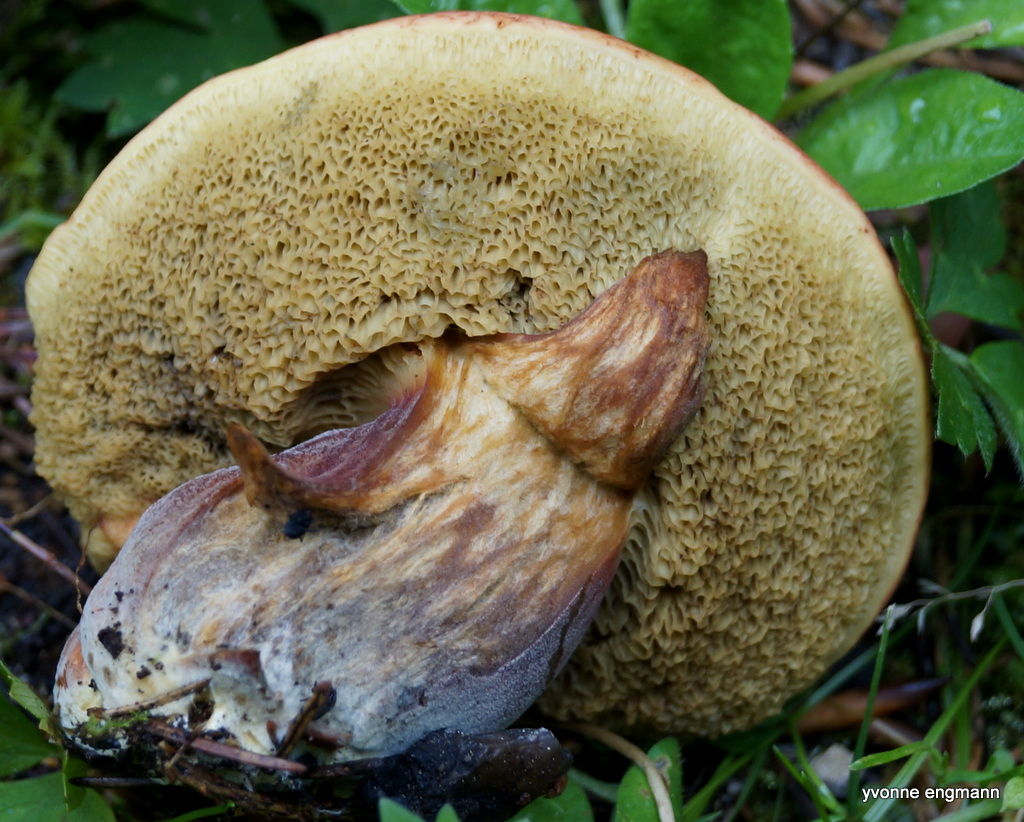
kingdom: Fungi
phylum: Basidiomycota
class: Agaricomycetes
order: Boletales
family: Boletaceae
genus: Hortiboletus
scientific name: Hortiboletus rubellus
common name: blodrød rørhat
